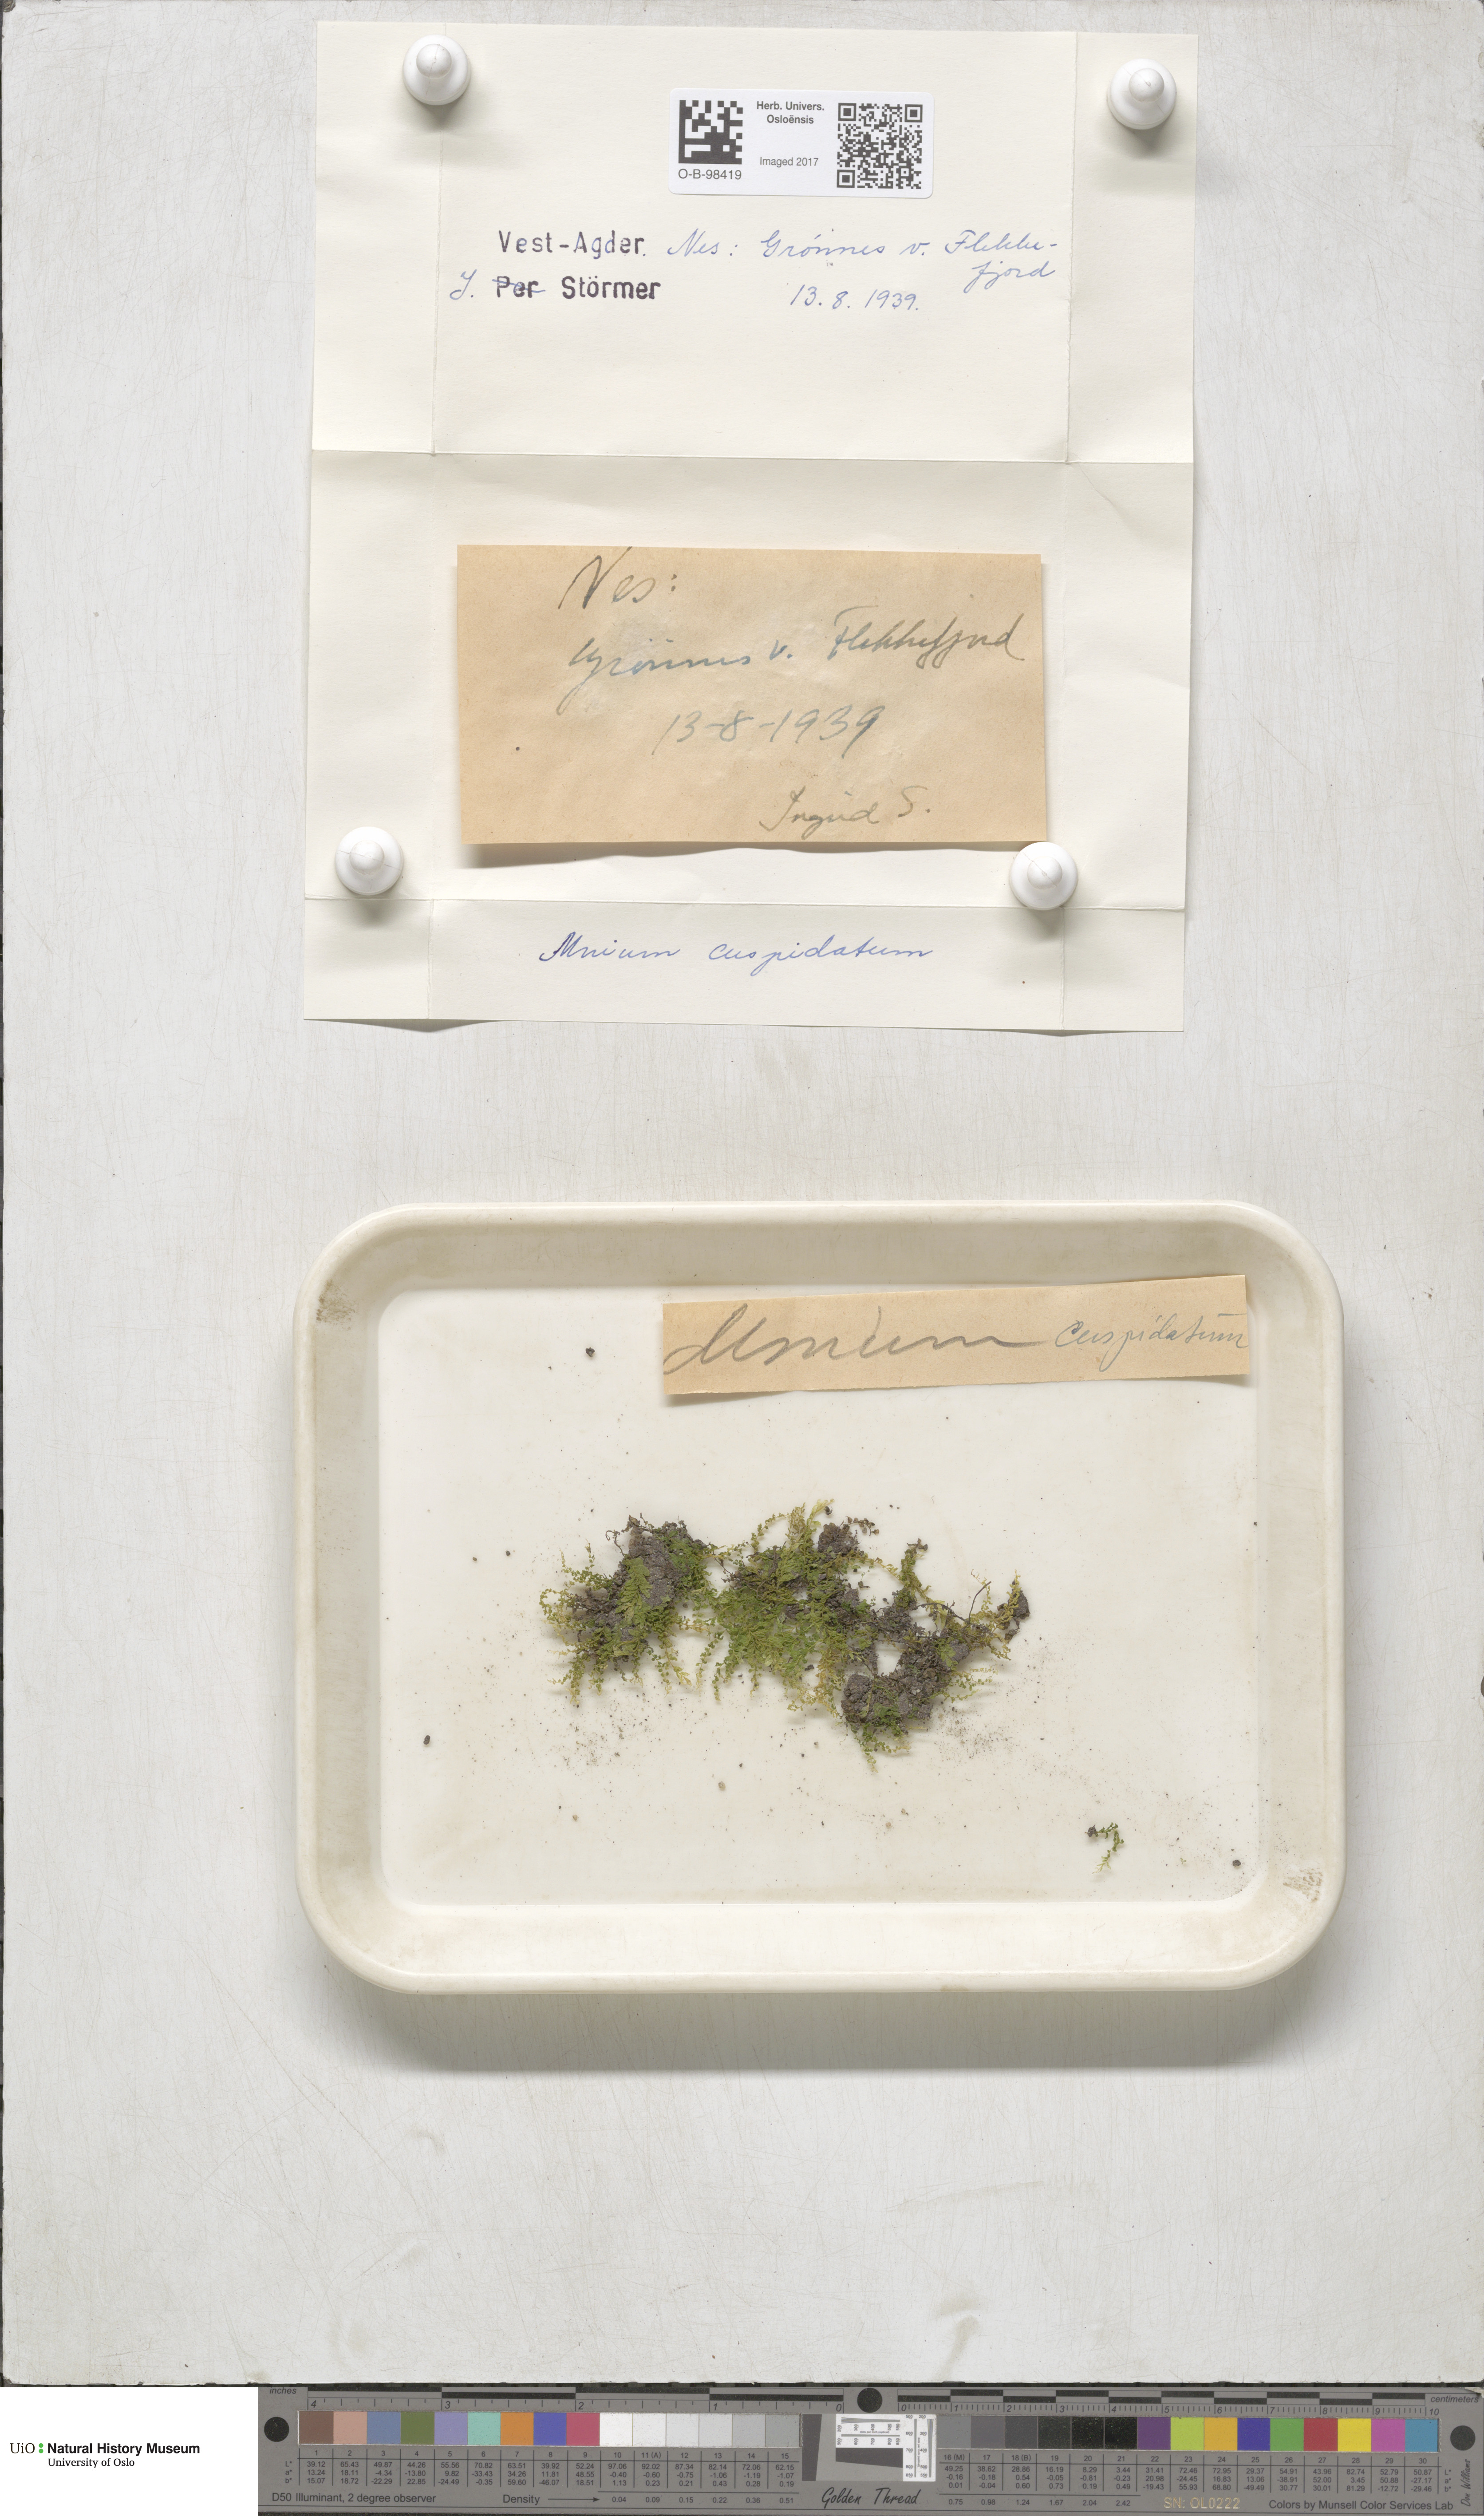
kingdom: Plantae
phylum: Bryophyta
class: Bryopsida
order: Bryales
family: Mniaceae
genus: Plagiomnium
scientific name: Plagiomnium cuspidatum
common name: Woodsy leafy moss
